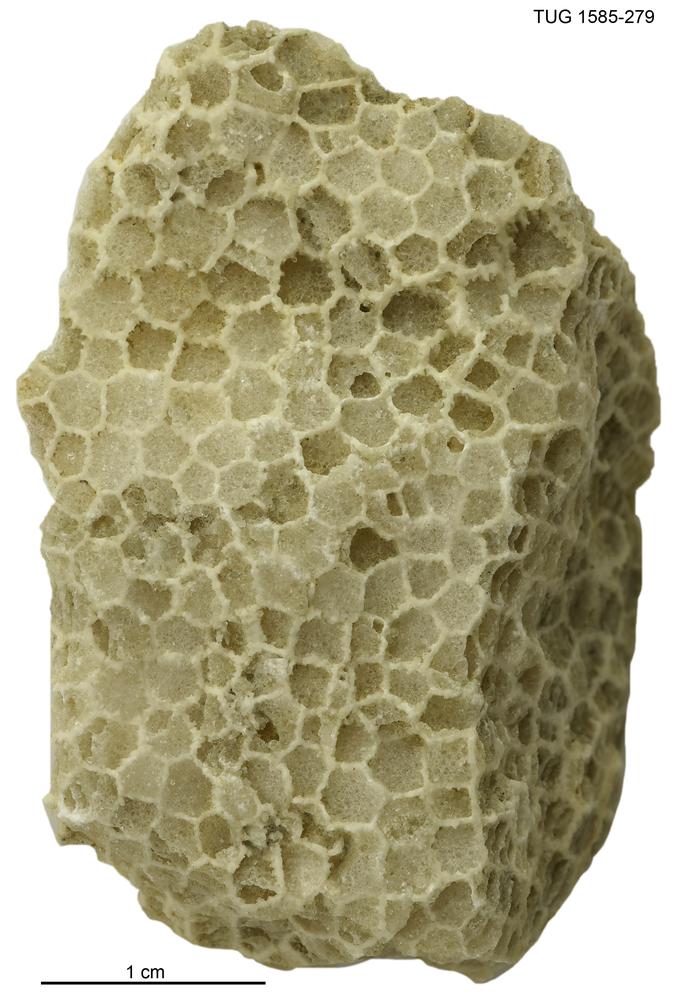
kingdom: Animalia
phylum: Cnidaria
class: Anthozoa
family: Favositidae
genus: Saffordophyllum
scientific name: Saffordophyllum
